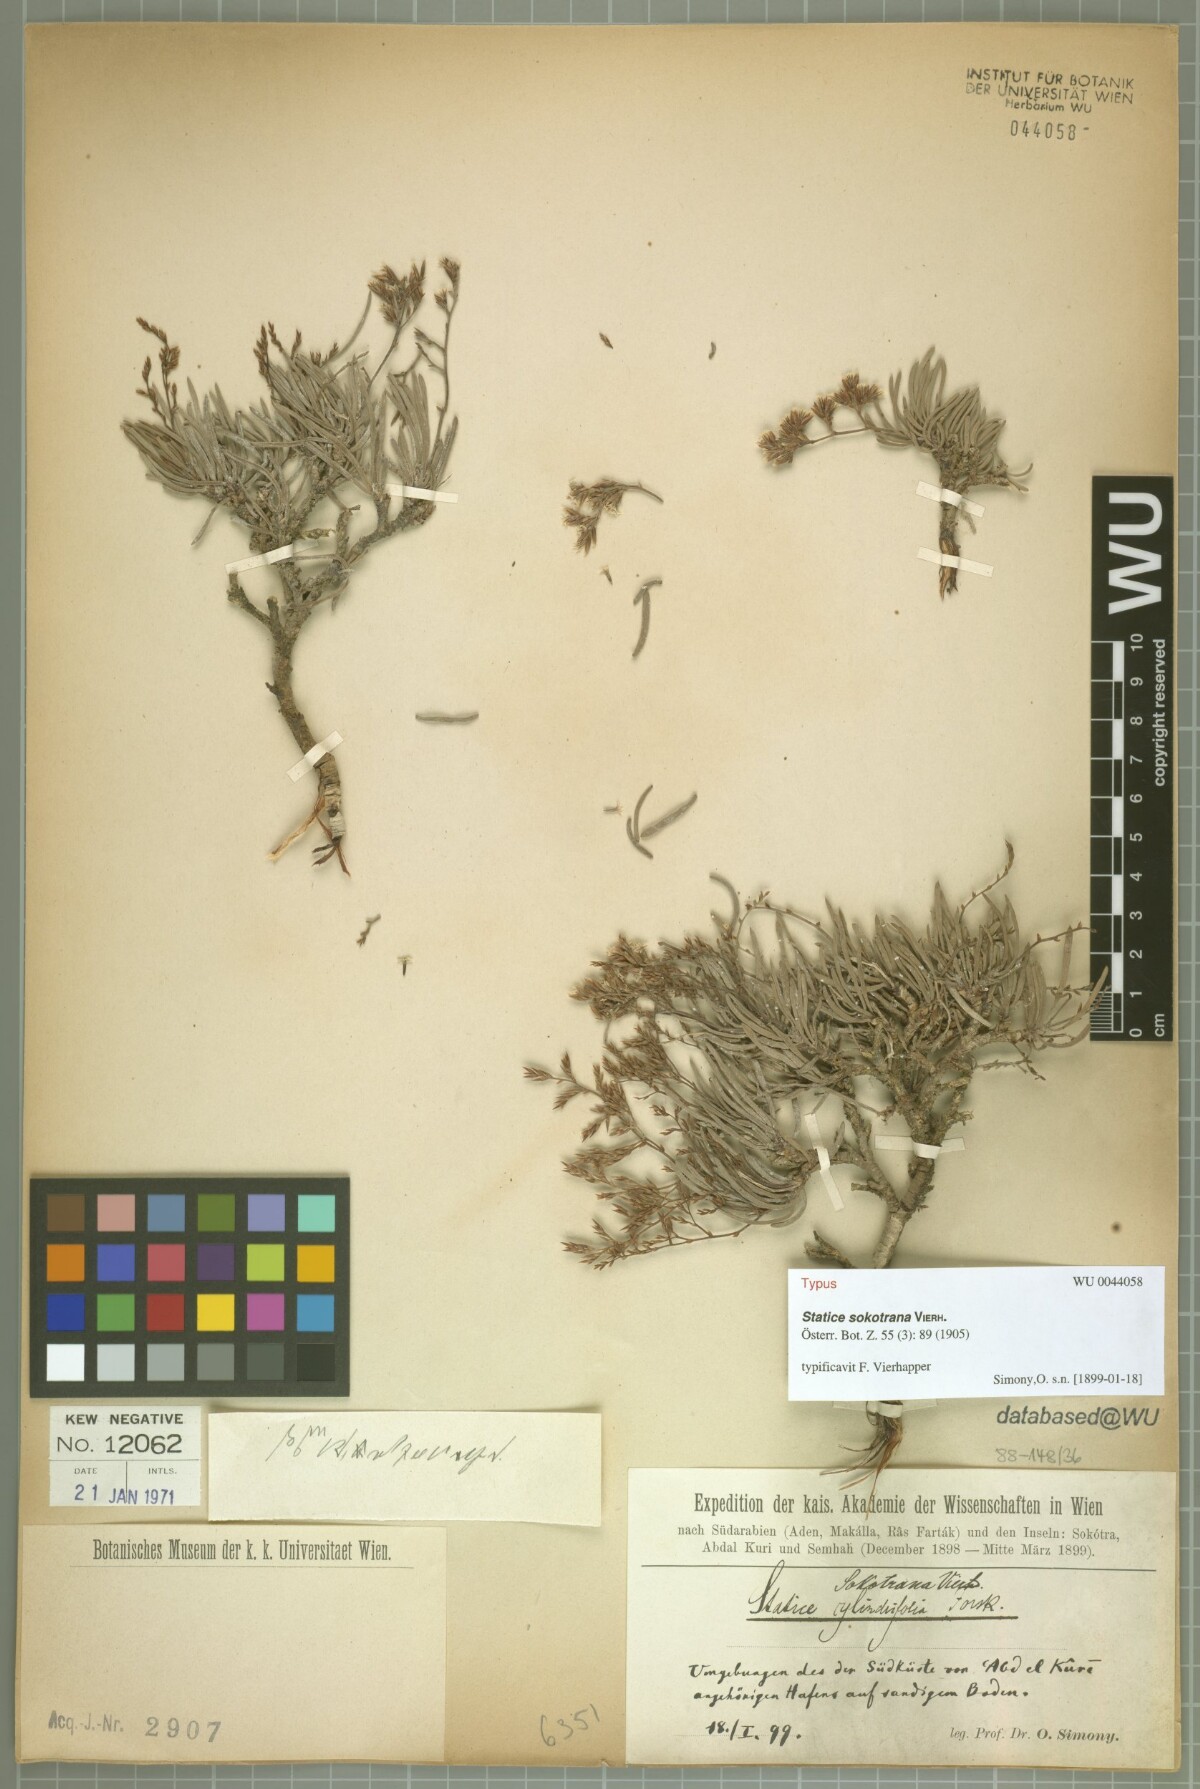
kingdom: Plantae
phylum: Tracheophyta
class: Magnoliopsida
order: Caryophyllales
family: Plumbaginaceae
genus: Limonium
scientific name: Limonium sokotranum
